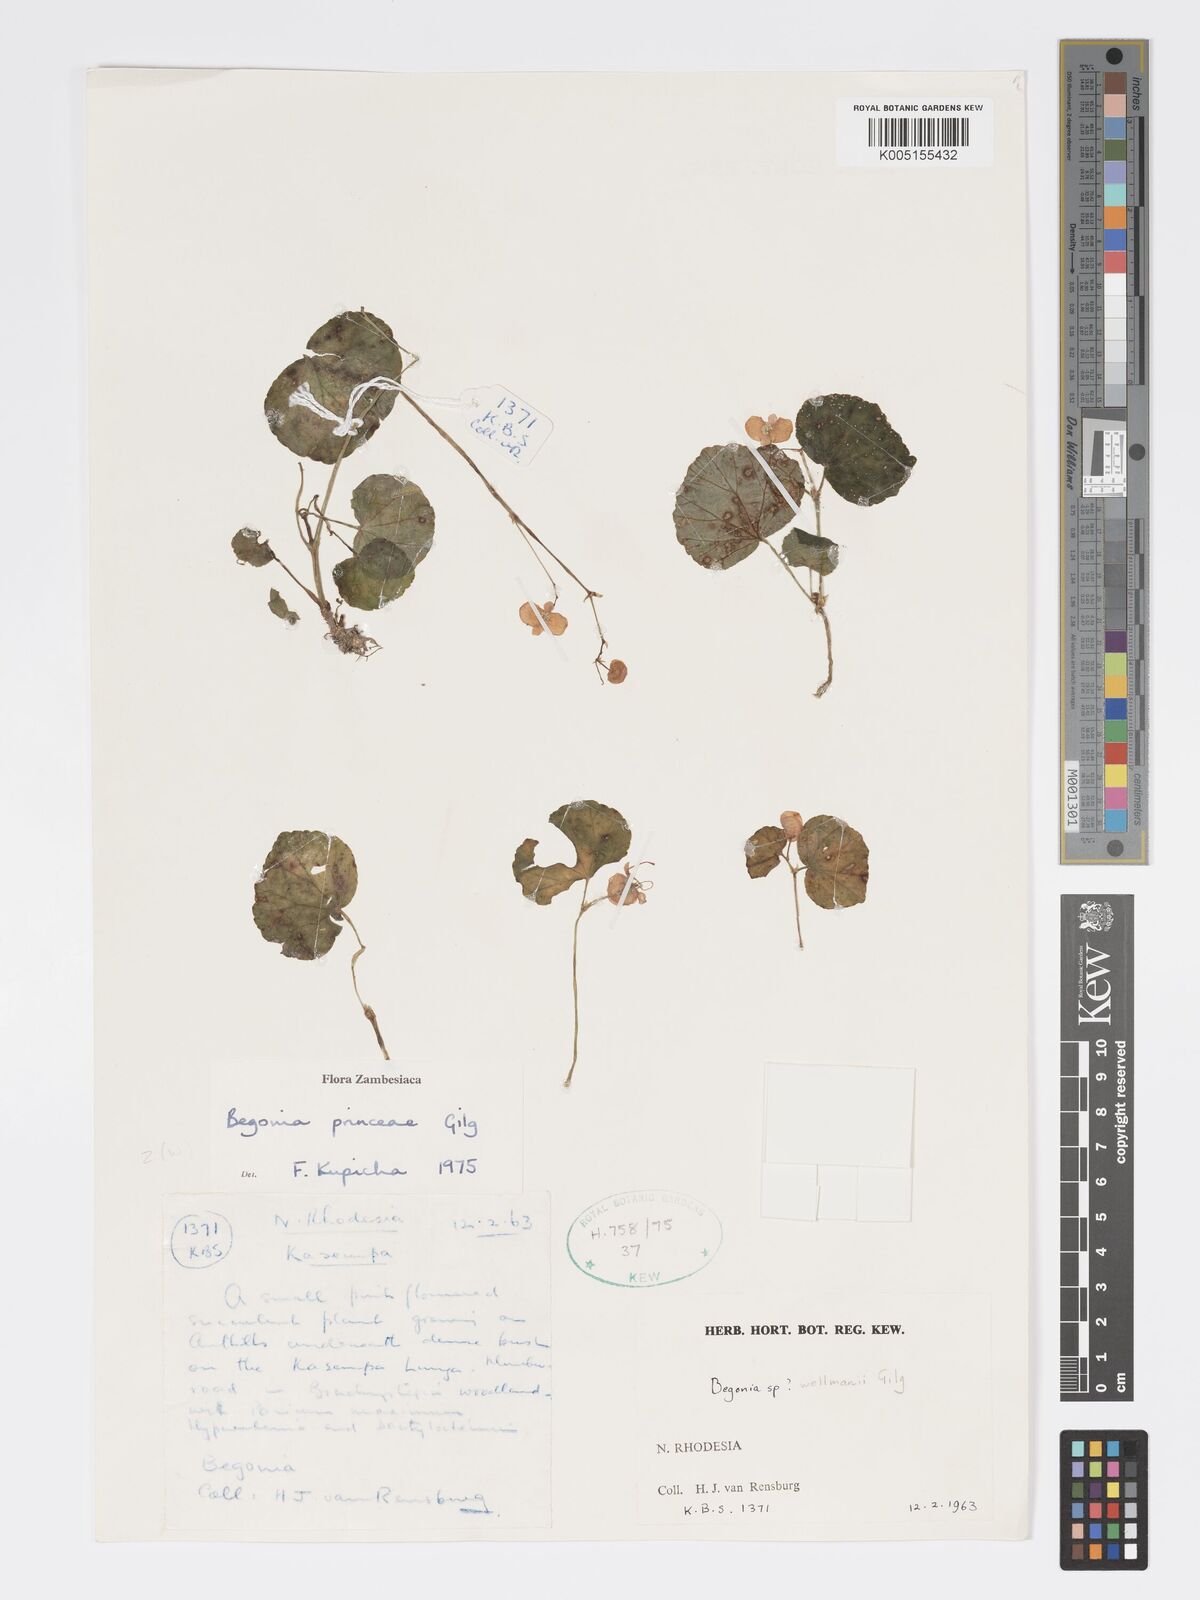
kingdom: Plantae
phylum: Tracheophyta
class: Magnoliopsida
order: Cucurbitales
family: Begoniaceae
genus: Begonia
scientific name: Begonia princeae
